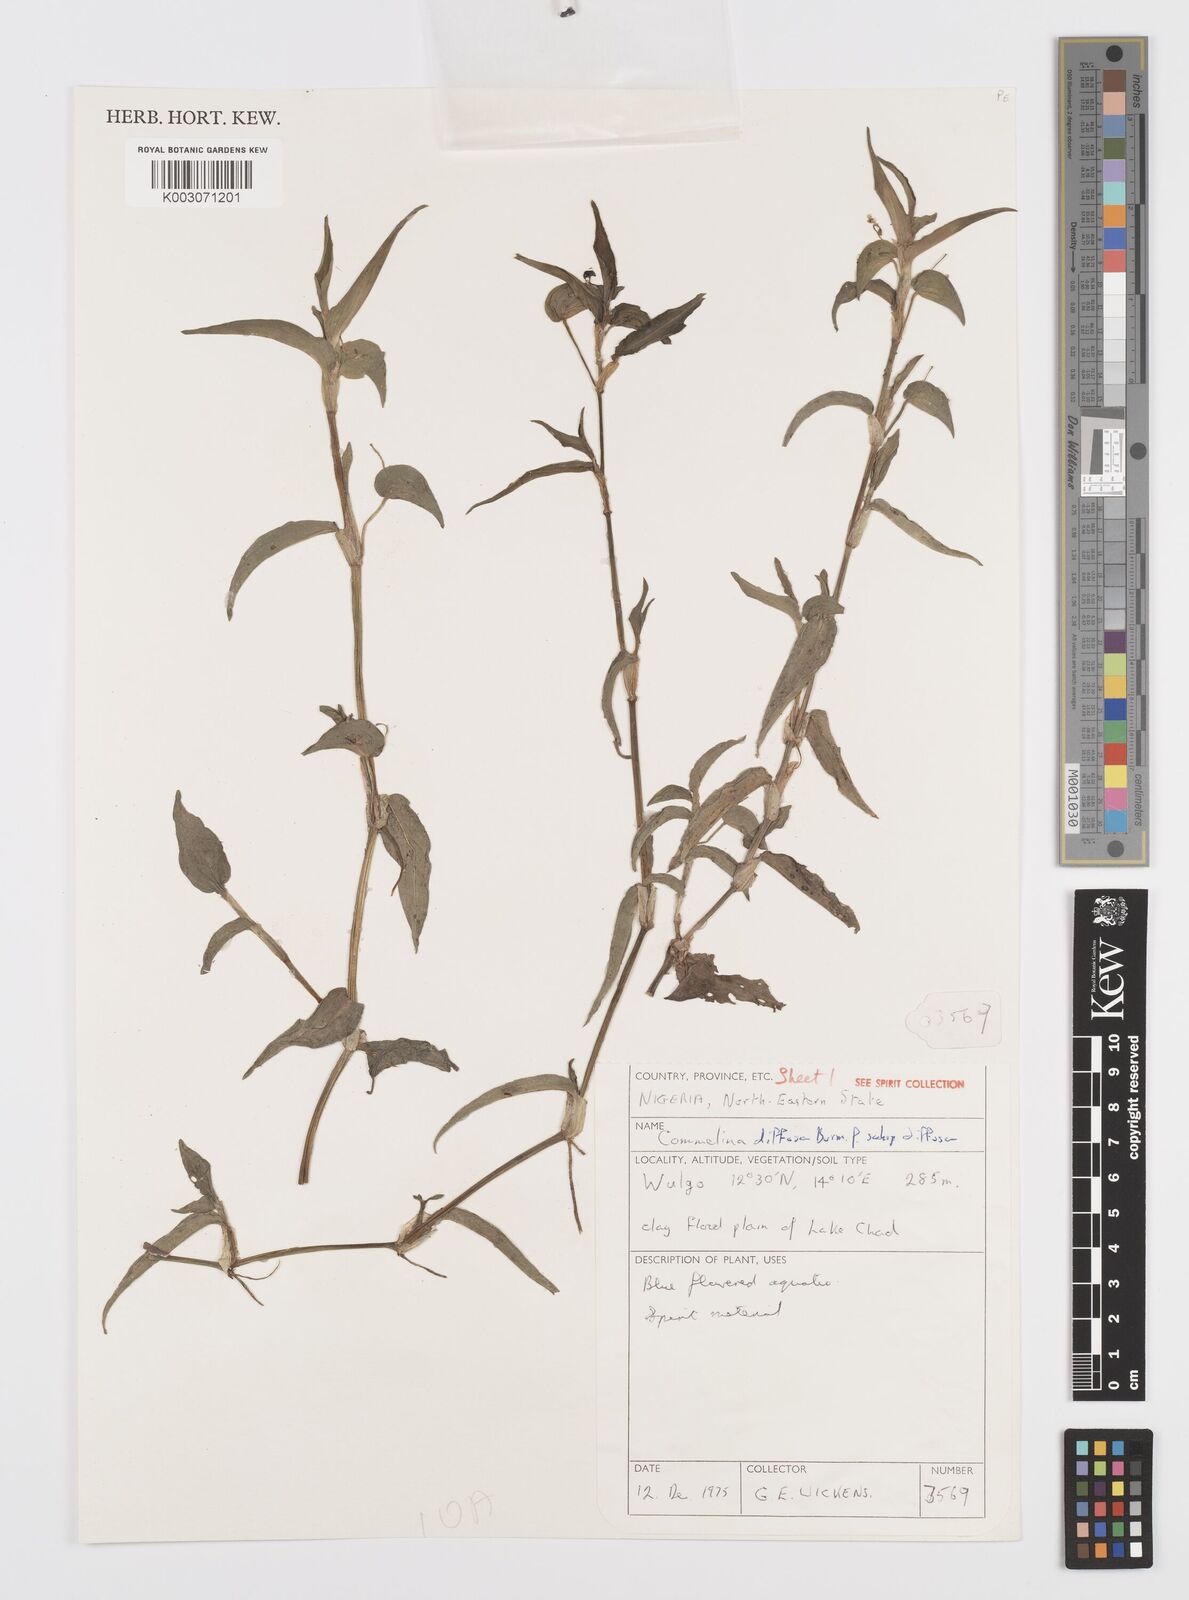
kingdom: Plantae
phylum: Tracheophyta
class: Liliopsida
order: Commelinales
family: Commelinaceae
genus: Commelina
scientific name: Commelina diffusa
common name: Climbing dayflower
